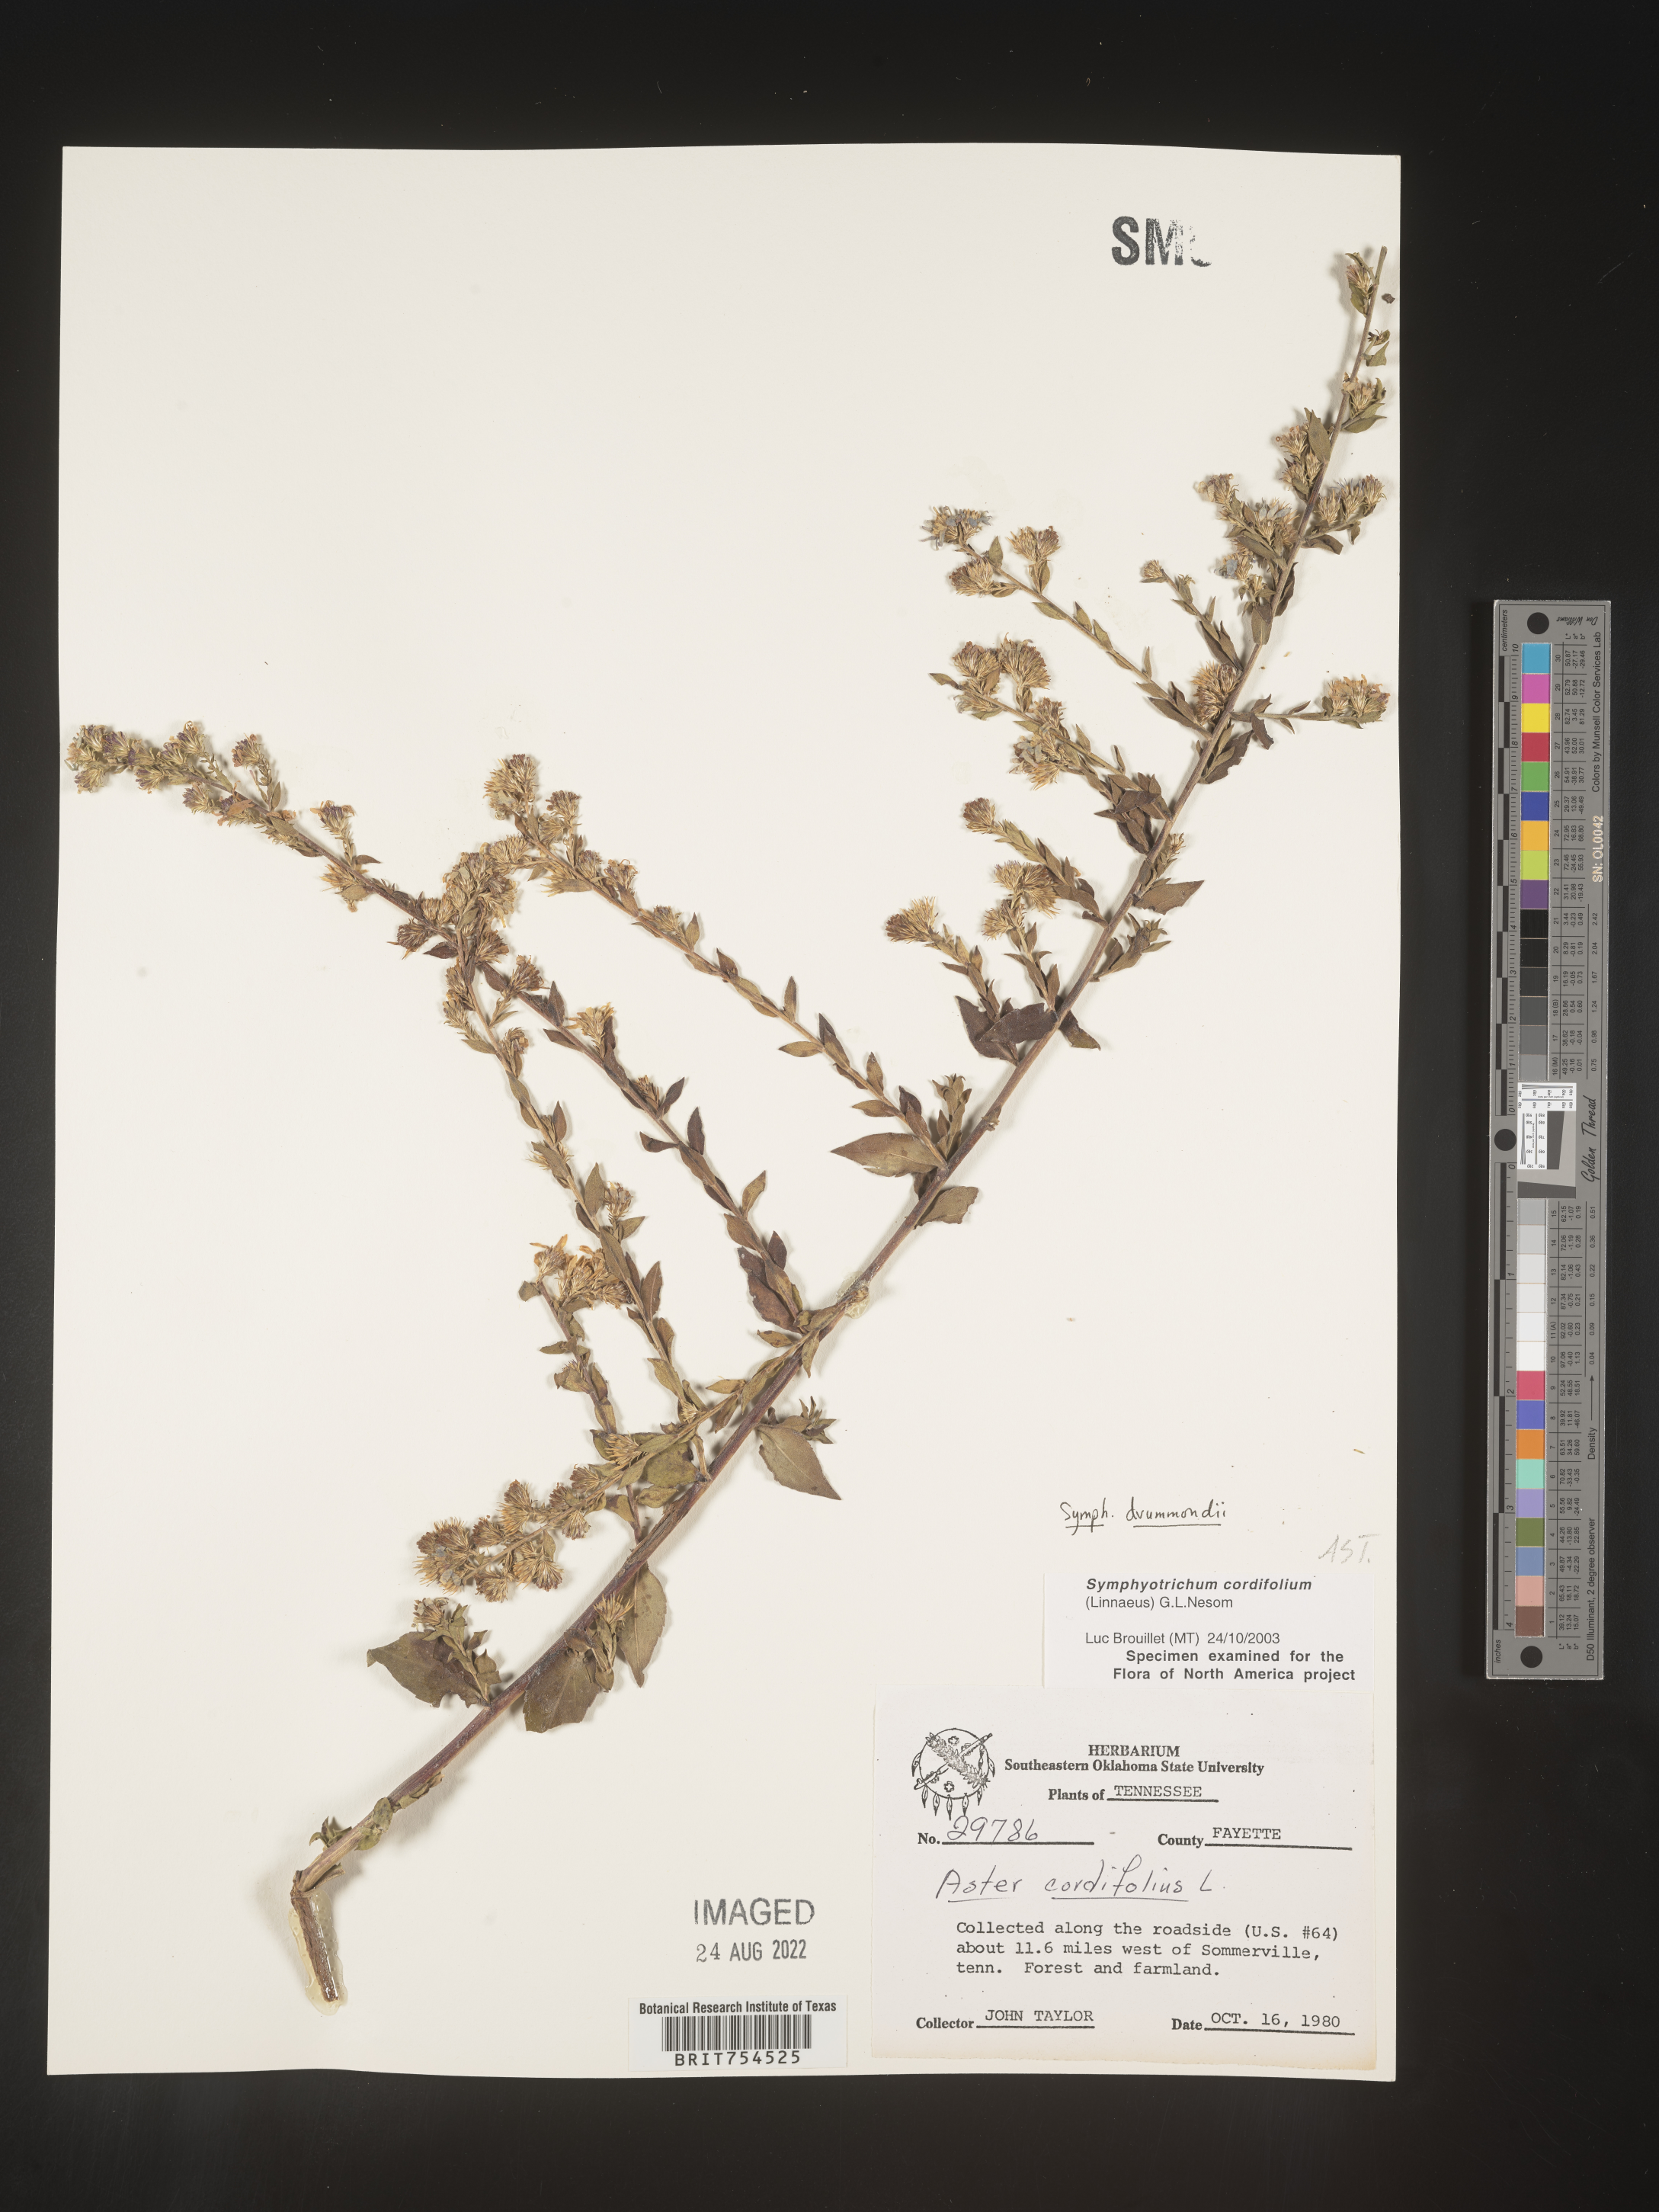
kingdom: Plantae
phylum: Tracheophyta
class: Magnoliopsida
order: Asterales
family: Asteraceae
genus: Symphyotrichum
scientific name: Symphyotrichum drummondii
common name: Drummond's aster
